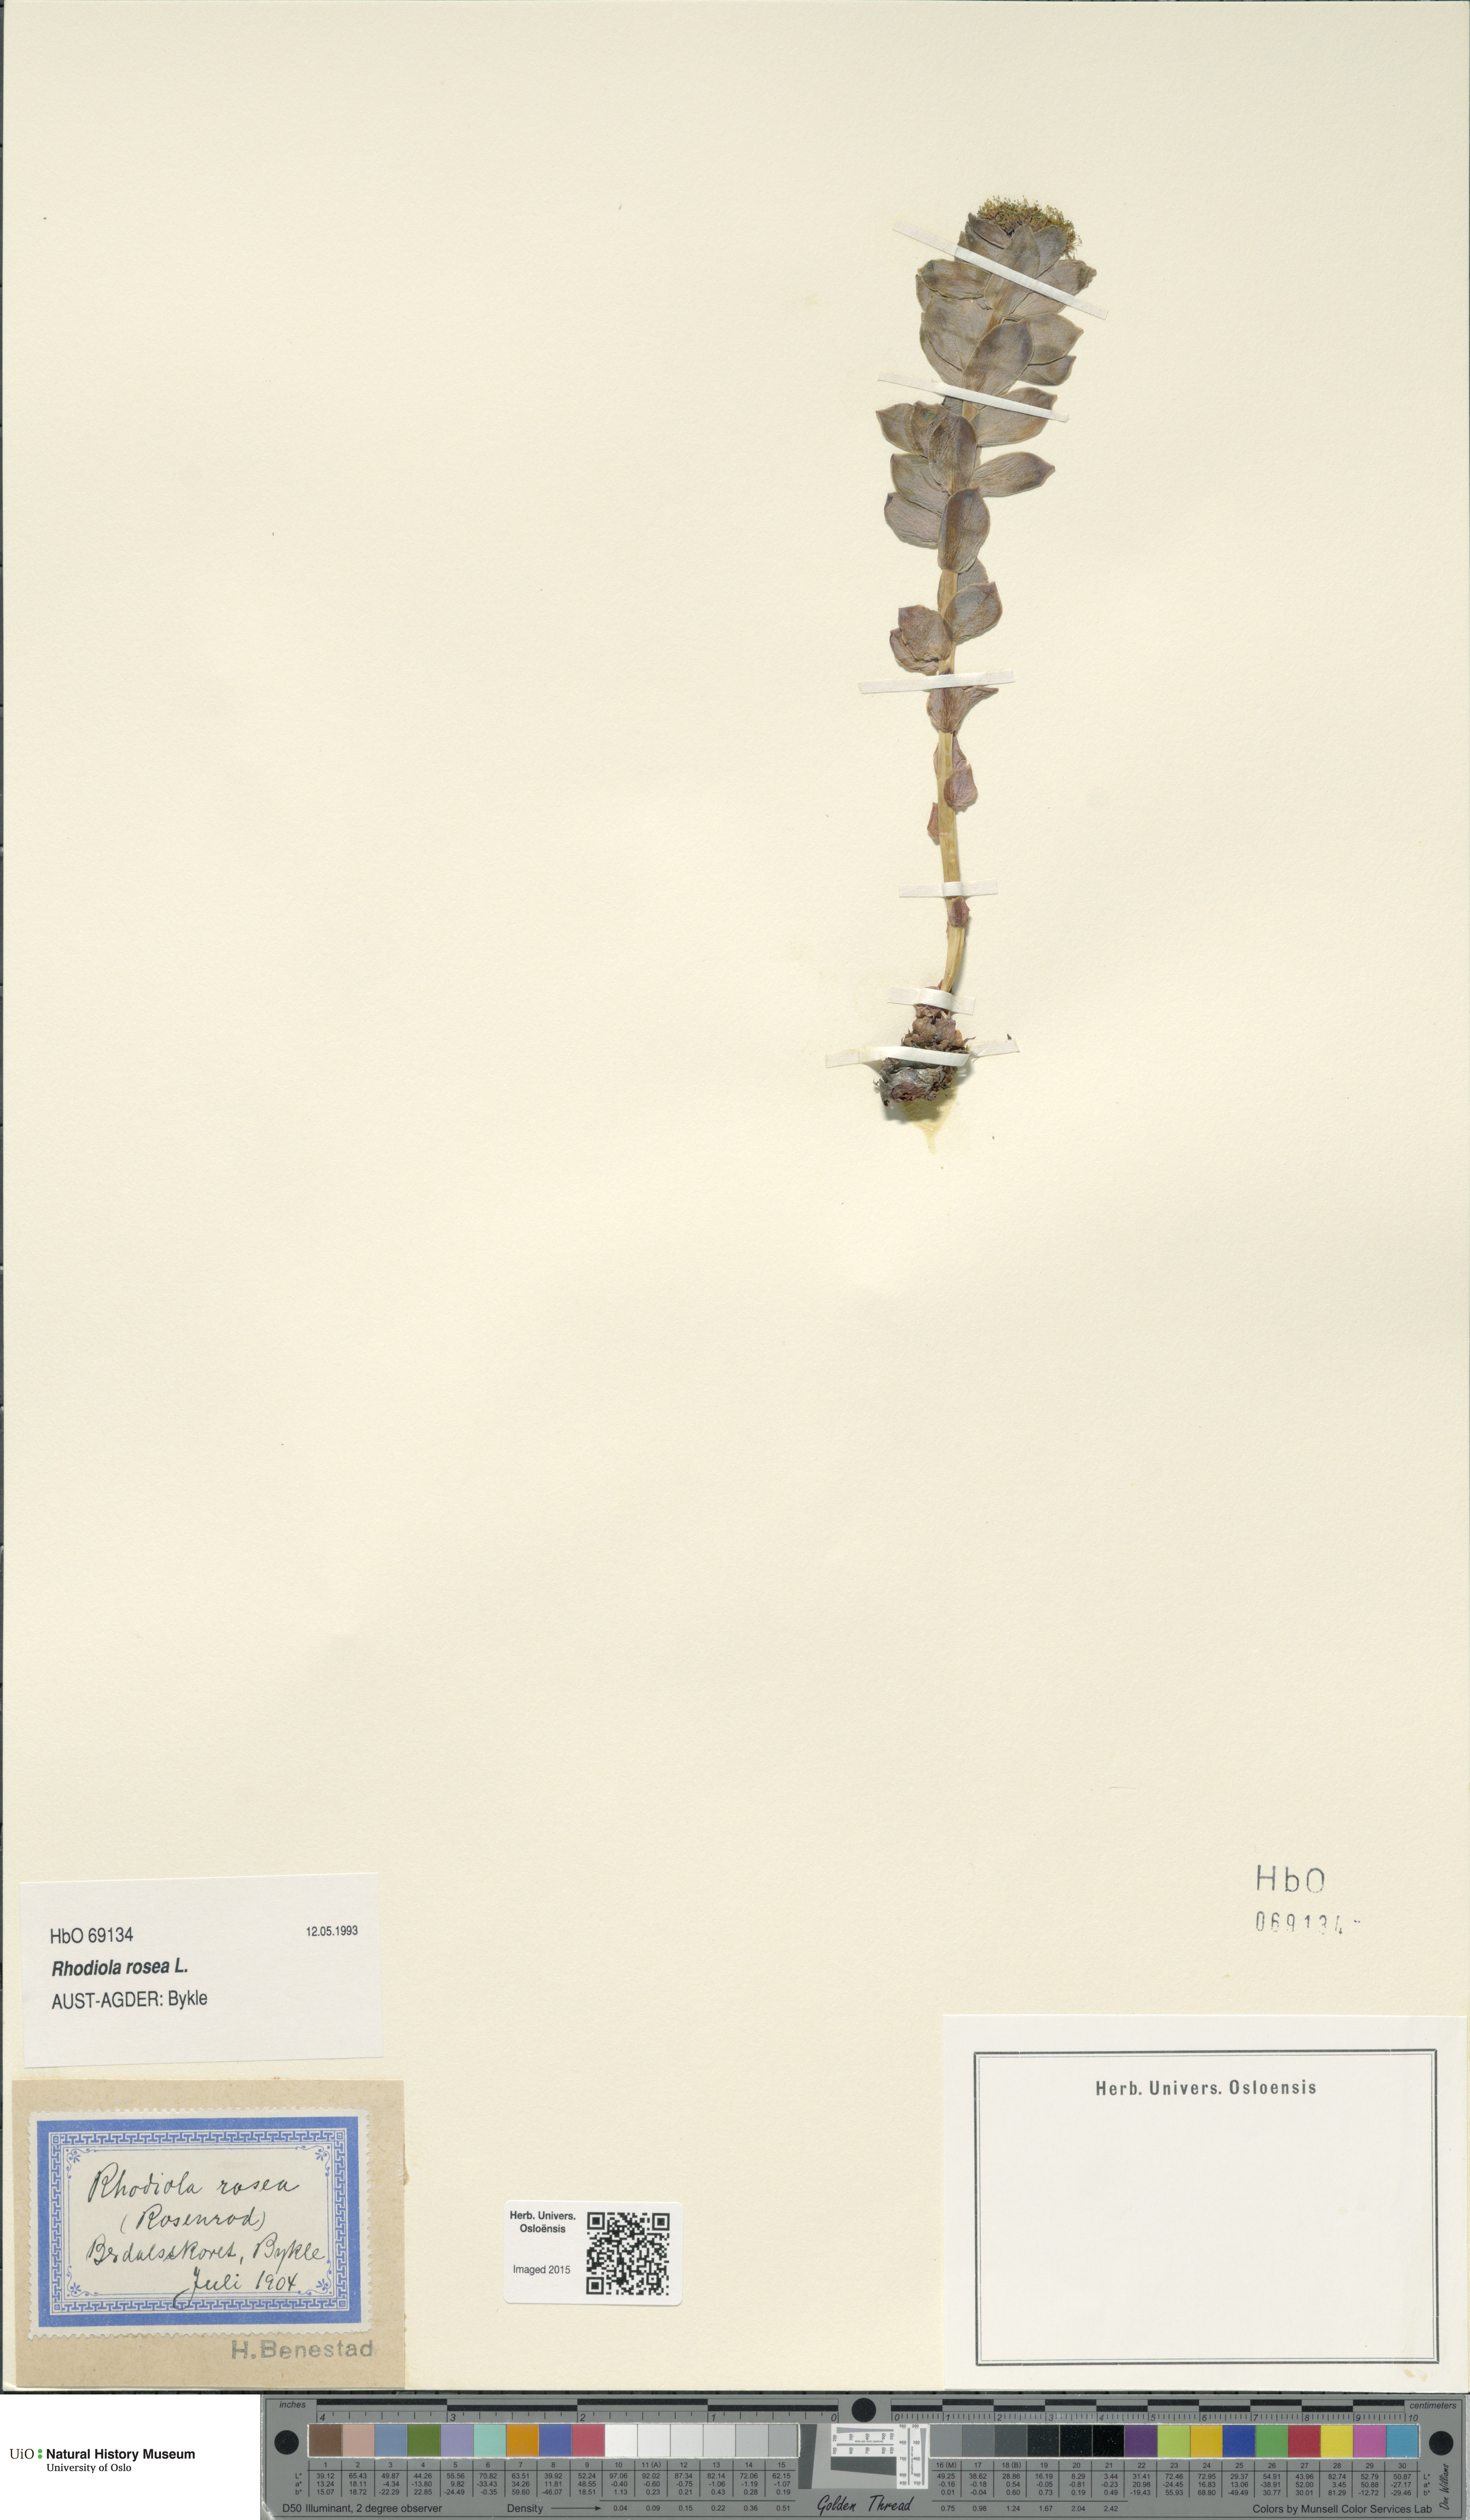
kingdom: Plantae
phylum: Tracheophyta
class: Magnoliopsida
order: Saxifragales
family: Crassulaceae
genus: Rhodiola
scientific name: Rhodiola rosea
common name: Roseroot
